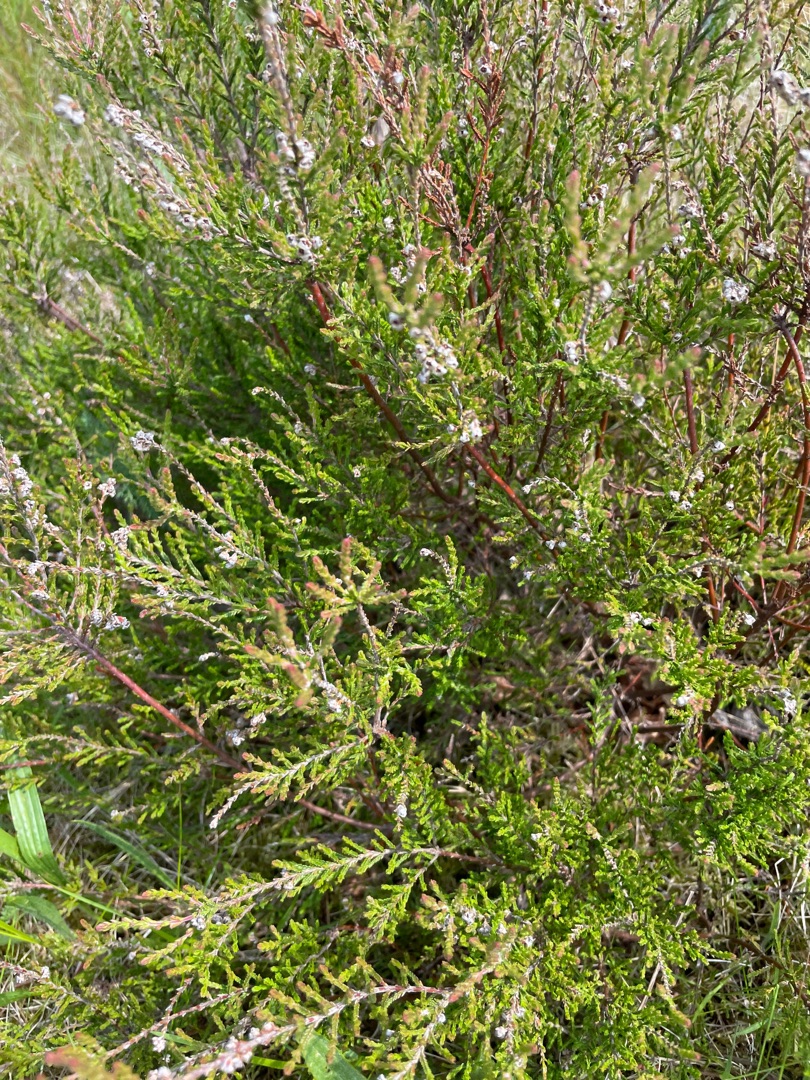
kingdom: Plantae
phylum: Tracheophyta
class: Magnoliopsida
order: Ericales
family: Ericaceae
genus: Calluna
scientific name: Calluna vulgaris
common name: Hedelyng
